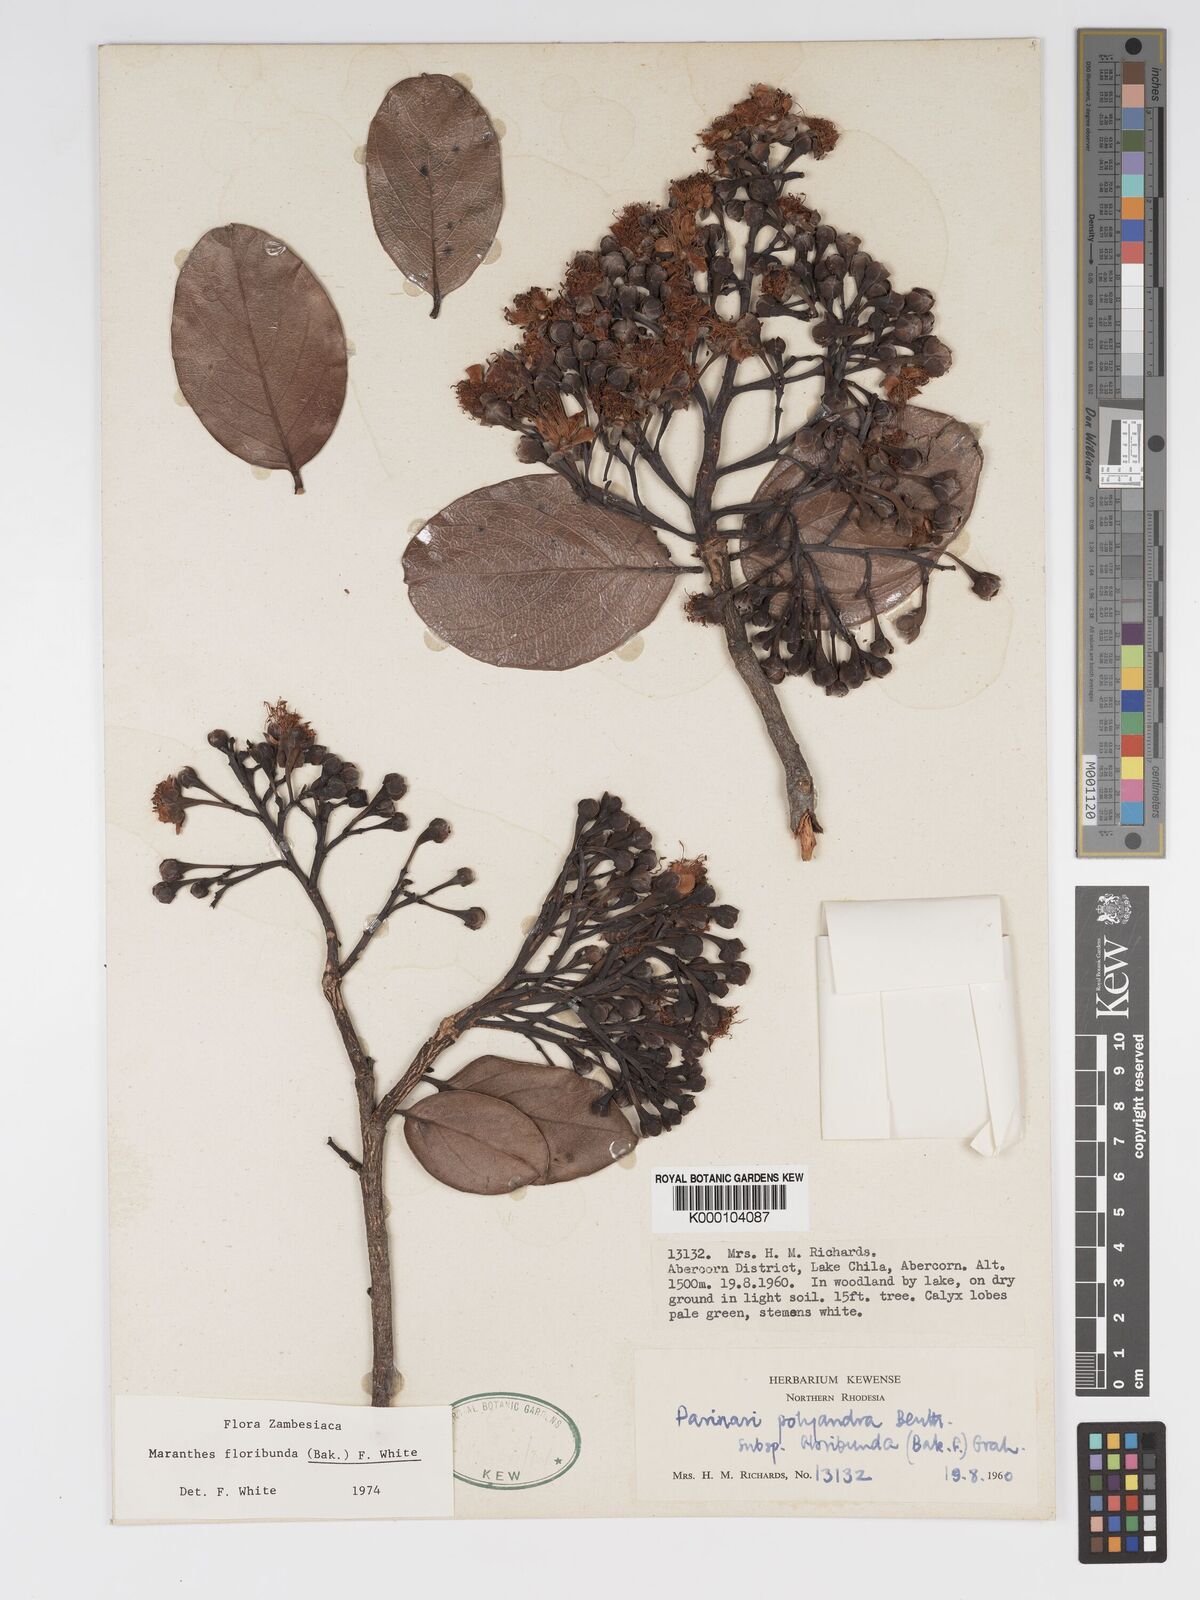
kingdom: Plantae
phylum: Tracheophyta
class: Magnoliopsida
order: Malpighiales
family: Chrysobalanaceae
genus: Maranthes
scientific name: Maranthes floribunda
